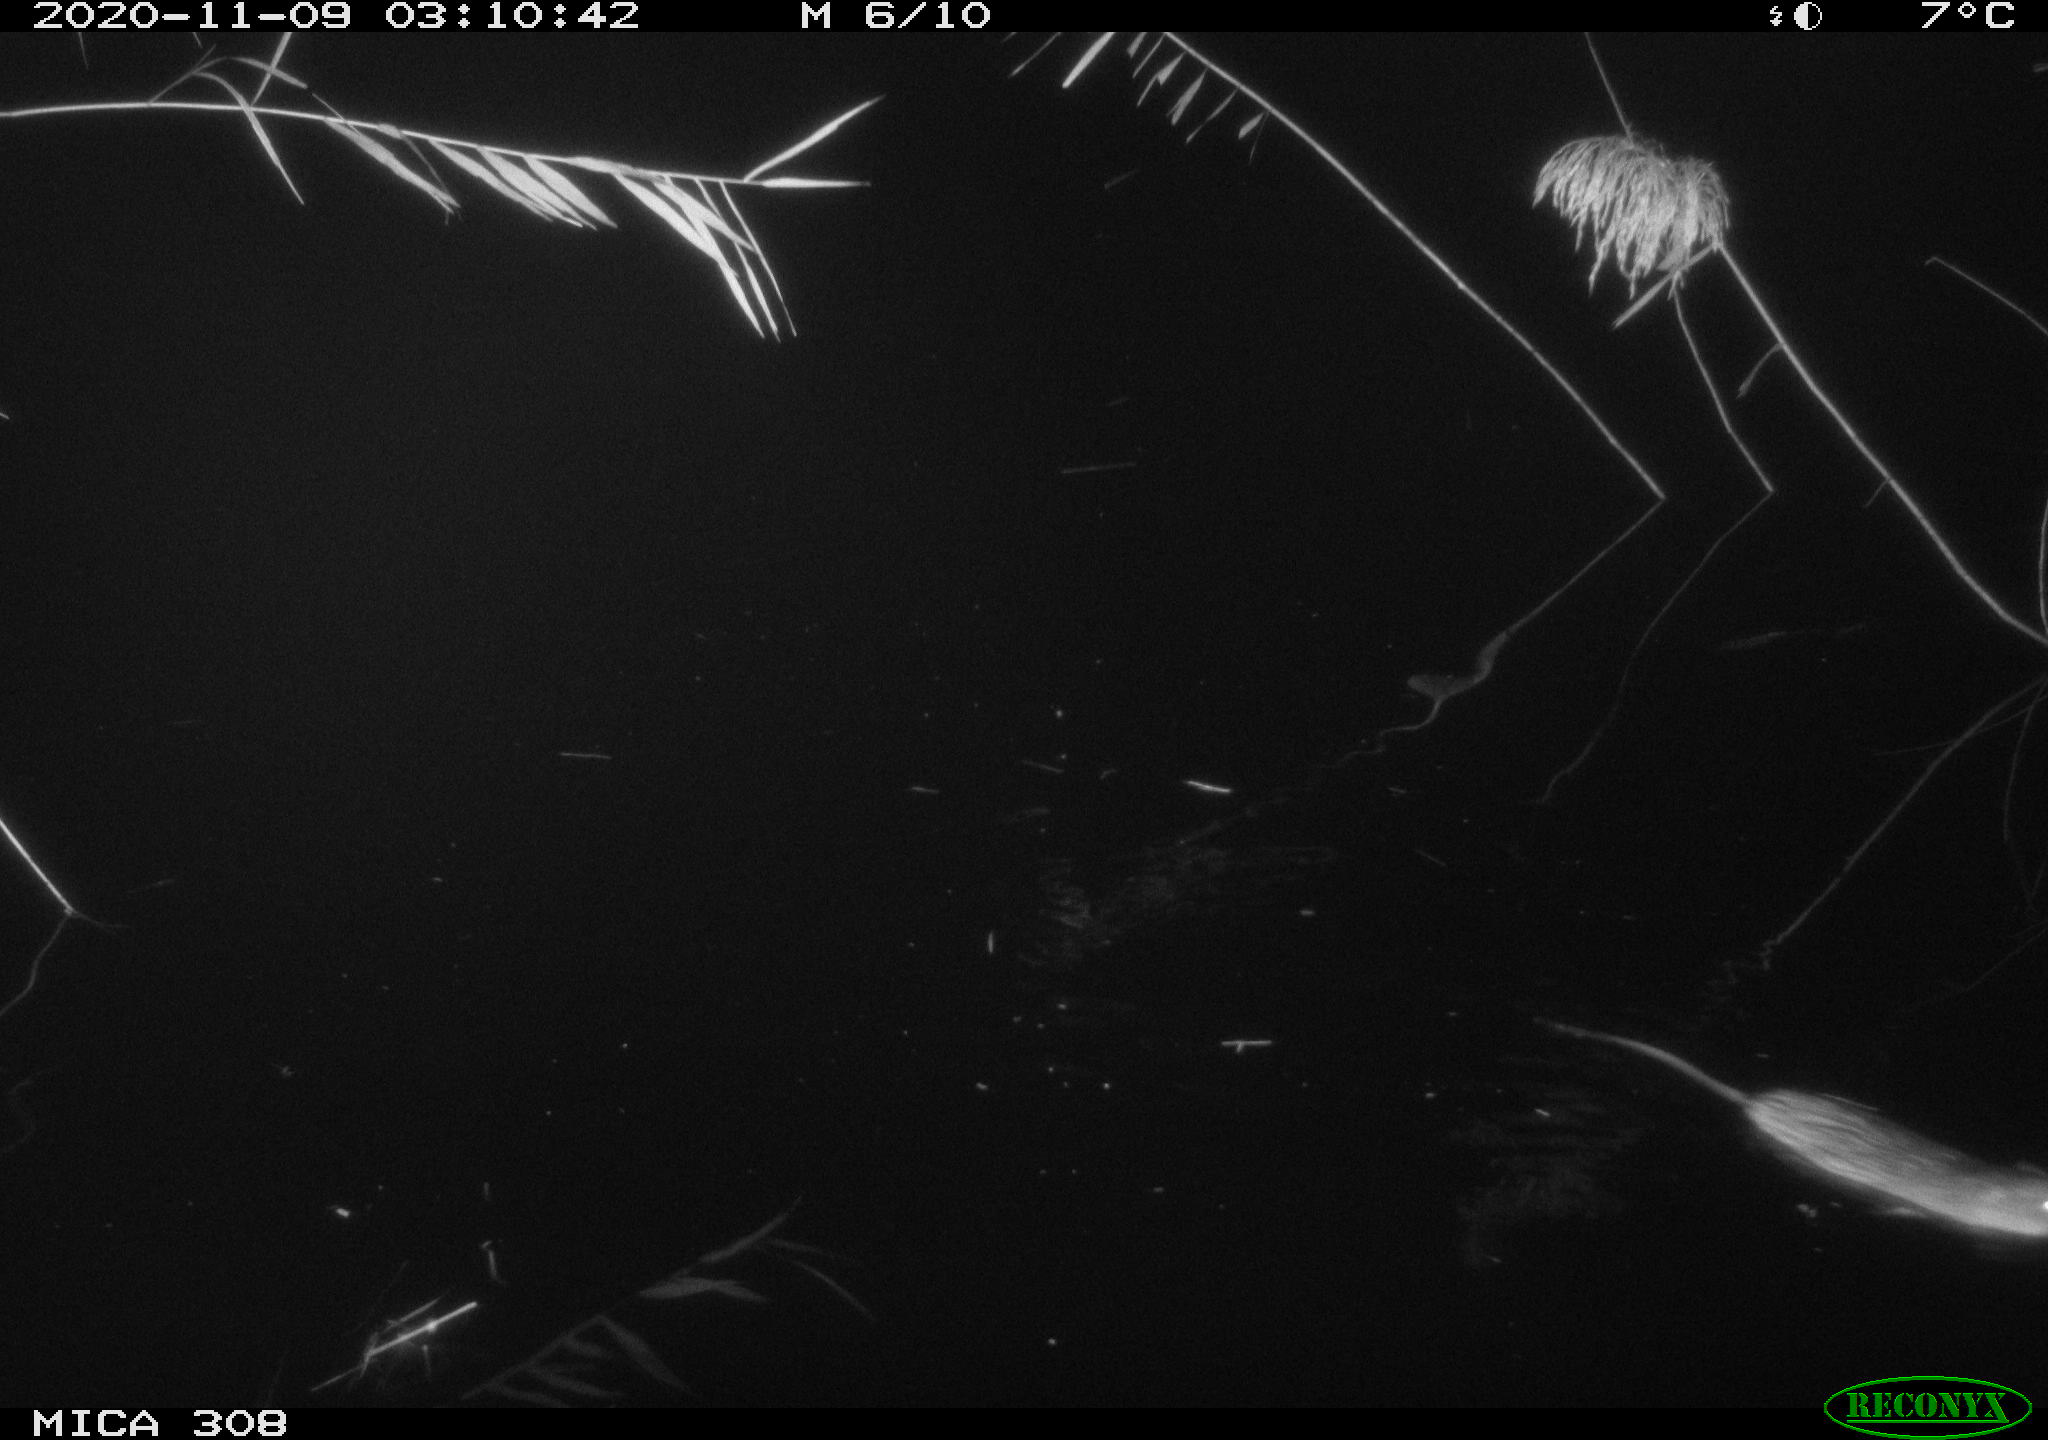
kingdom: Animalia
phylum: Chordata
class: Mammalia
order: Rodentia
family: Cricetidae
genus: Ondatra
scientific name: Ondatra zibethicus
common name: Muskrat
